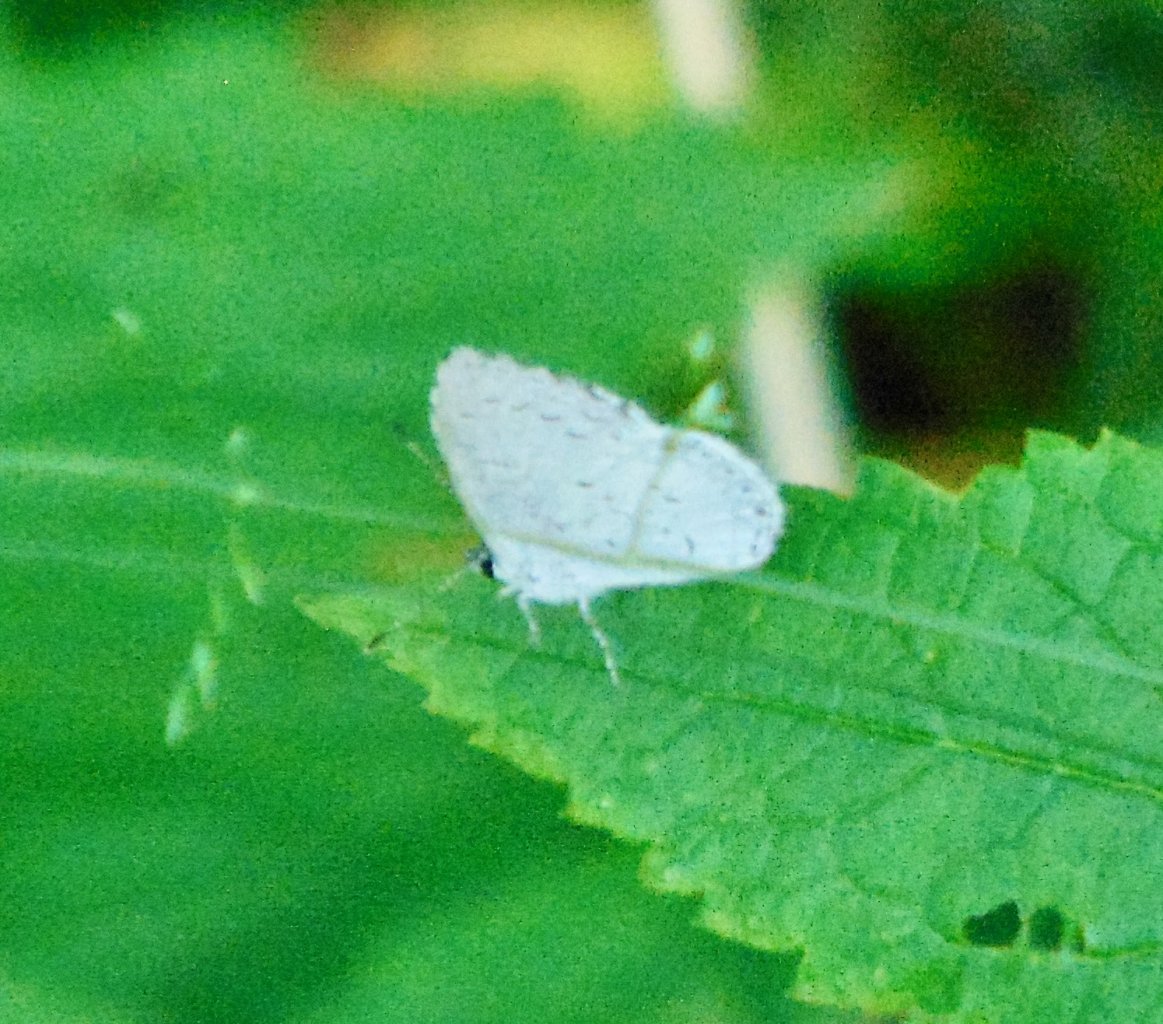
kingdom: Animalia
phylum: Arthropoda
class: Insecta
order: Lepidoptera
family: Lycaenidae
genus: Cyaniris
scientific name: Cyaniris neglecta
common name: Summer Azure
